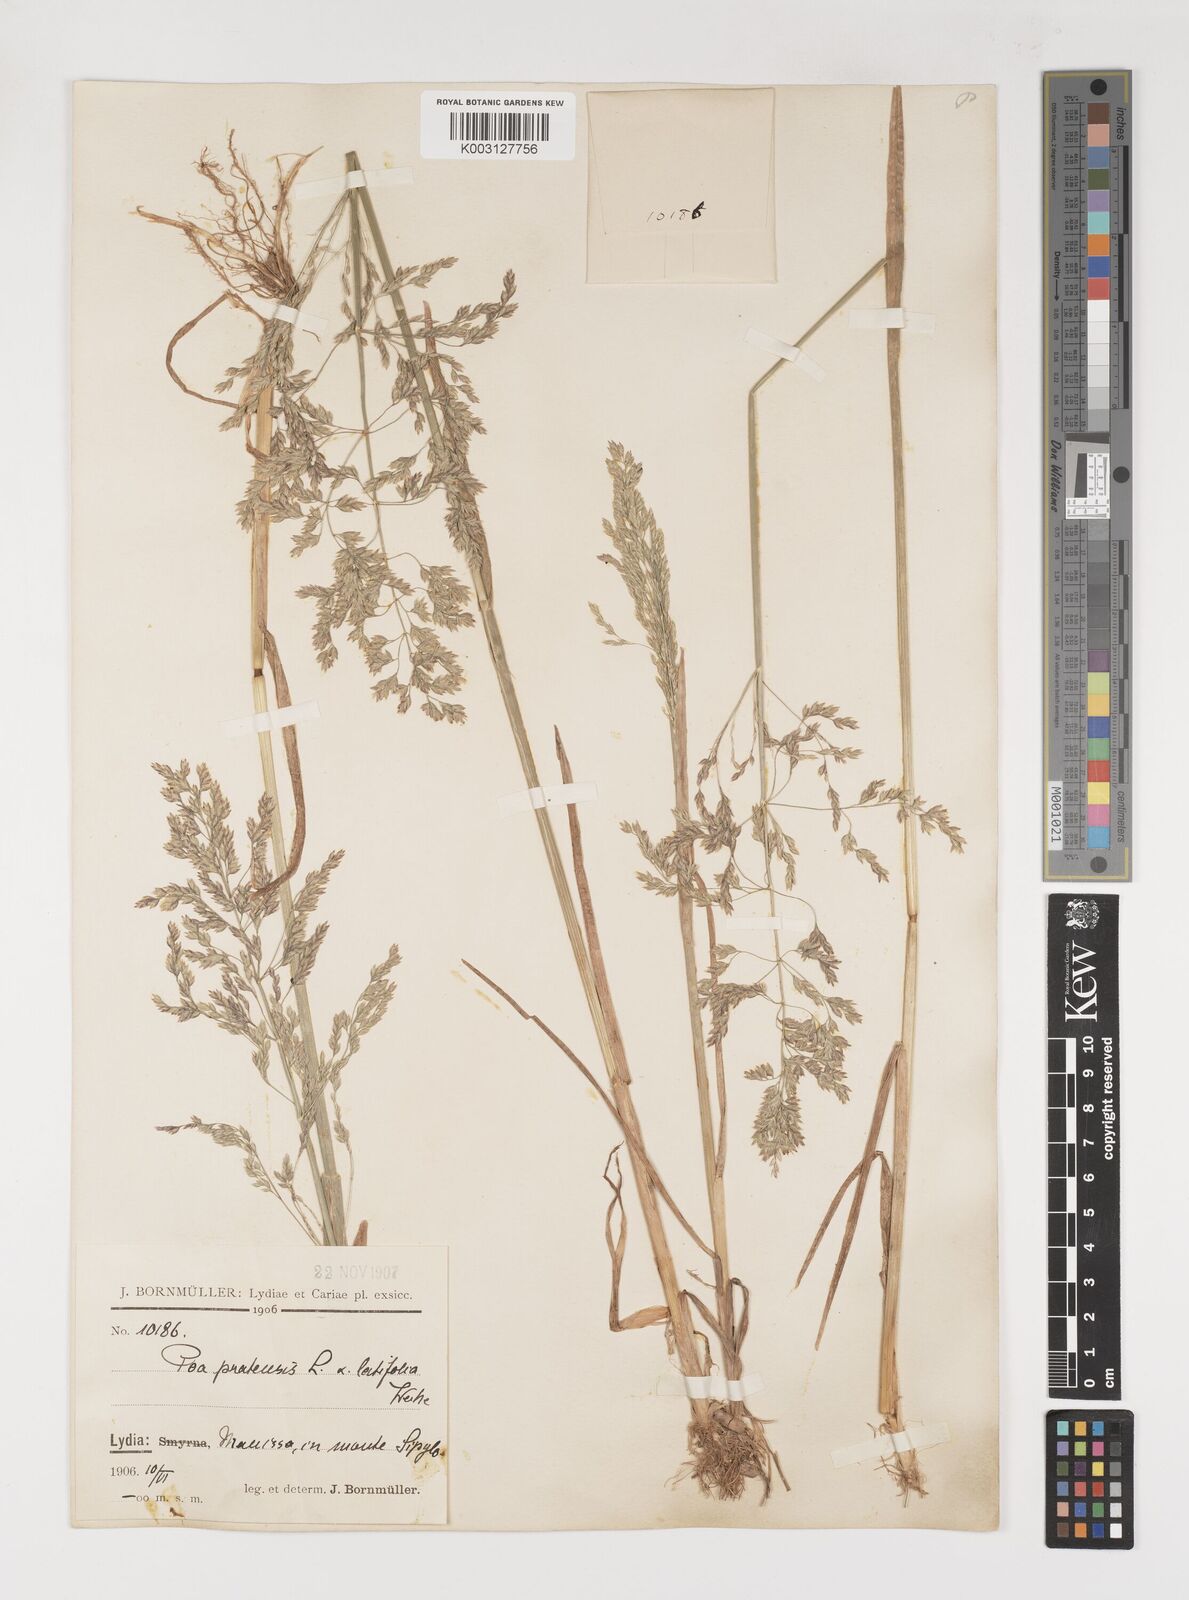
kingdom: Plantae
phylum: Tracheophyta
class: Liliopsida
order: Poales
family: Poaceae
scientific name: Poaceae
